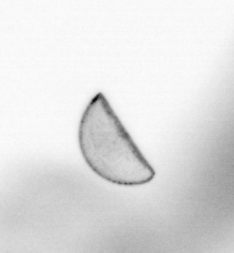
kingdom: Chromista
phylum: Ochrophyta
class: Bacillariophyceae
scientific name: Bacillariophyceae
